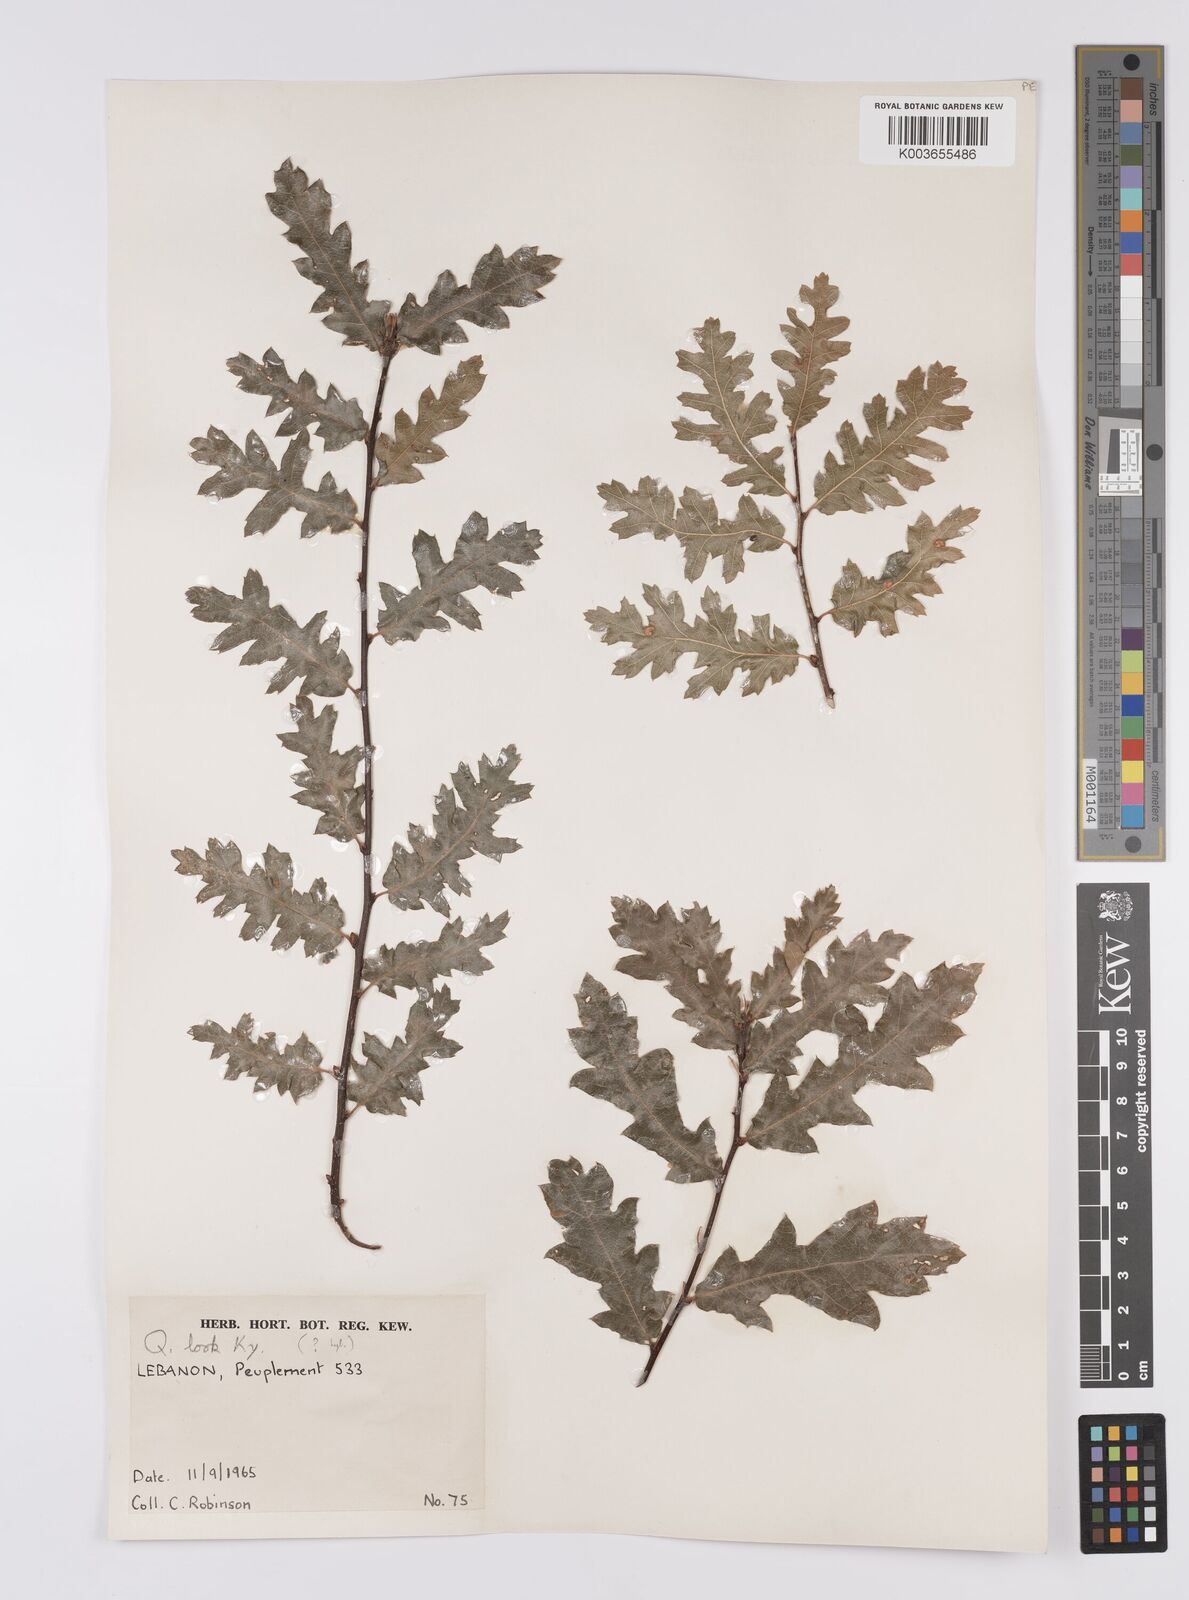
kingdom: Plantae
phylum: Tracheophyta
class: Magnoliopsida
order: Fagales
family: Fagaceae
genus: Quercus
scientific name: Quercus look
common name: Look oak
